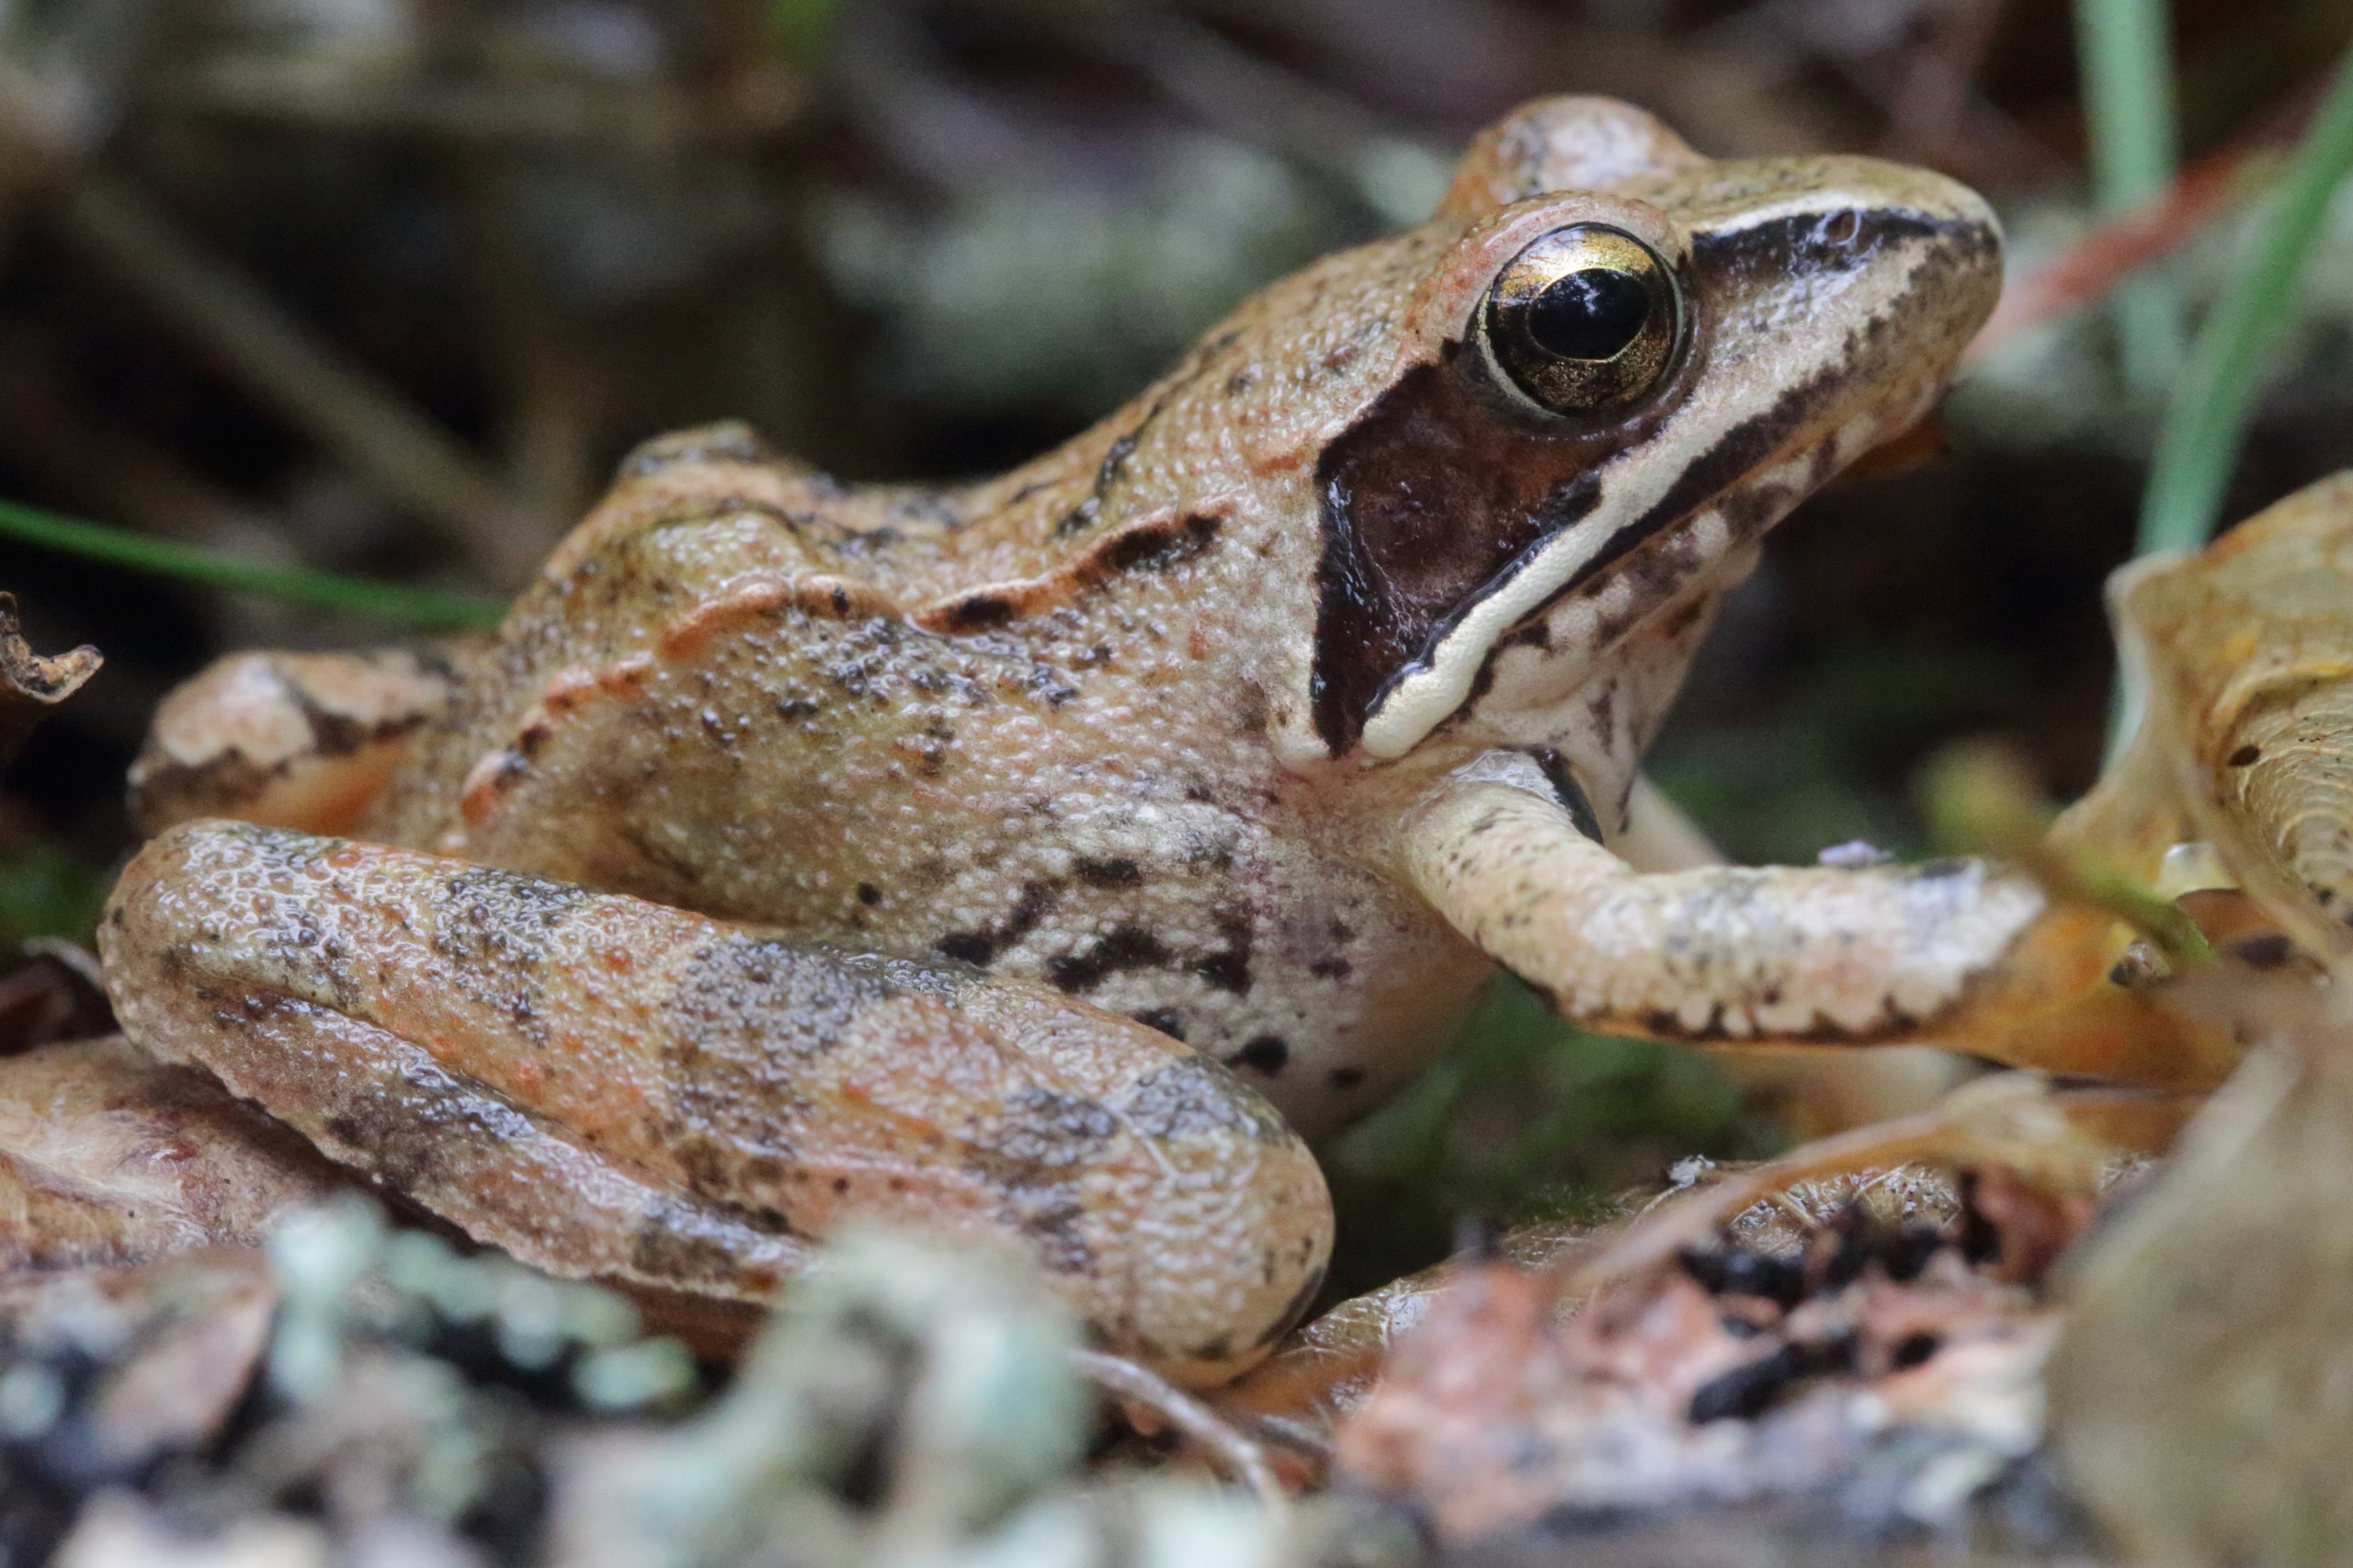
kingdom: Animalia
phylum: Chordata
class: Amphibia
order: Anura
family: Ranidae
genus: Rana
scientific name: Rana dalmatina
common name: Springfrø
